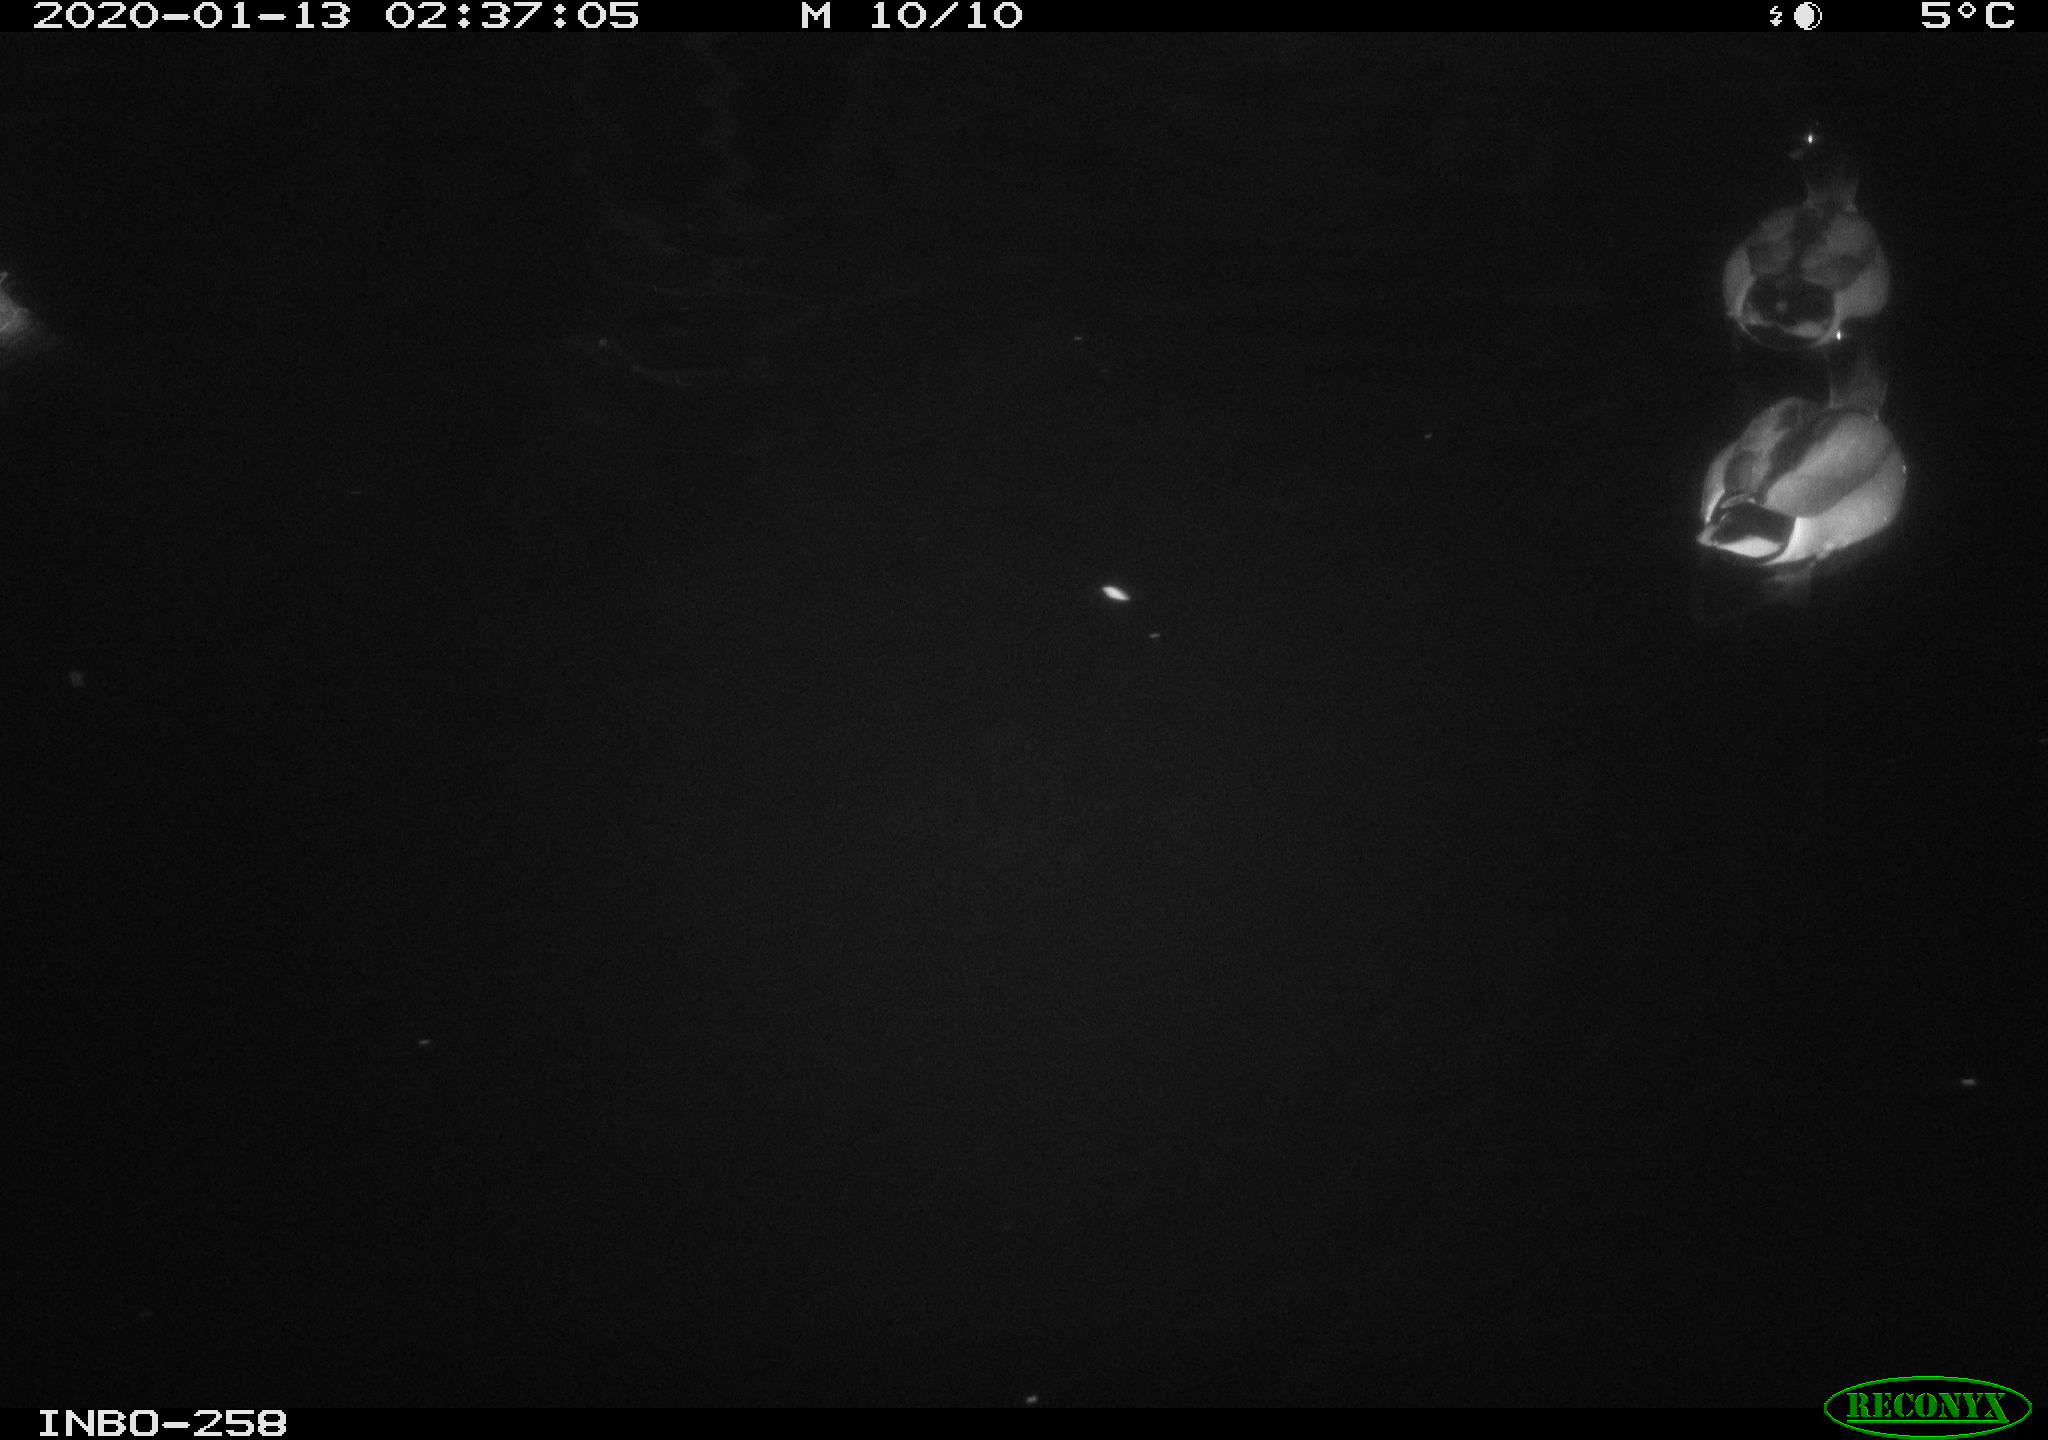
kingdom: Animalia
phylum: Chordata
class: Aves
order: Anseriformes
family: Anatidae
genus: Anas
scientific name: Anas platyrhynchos
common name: Mallard
